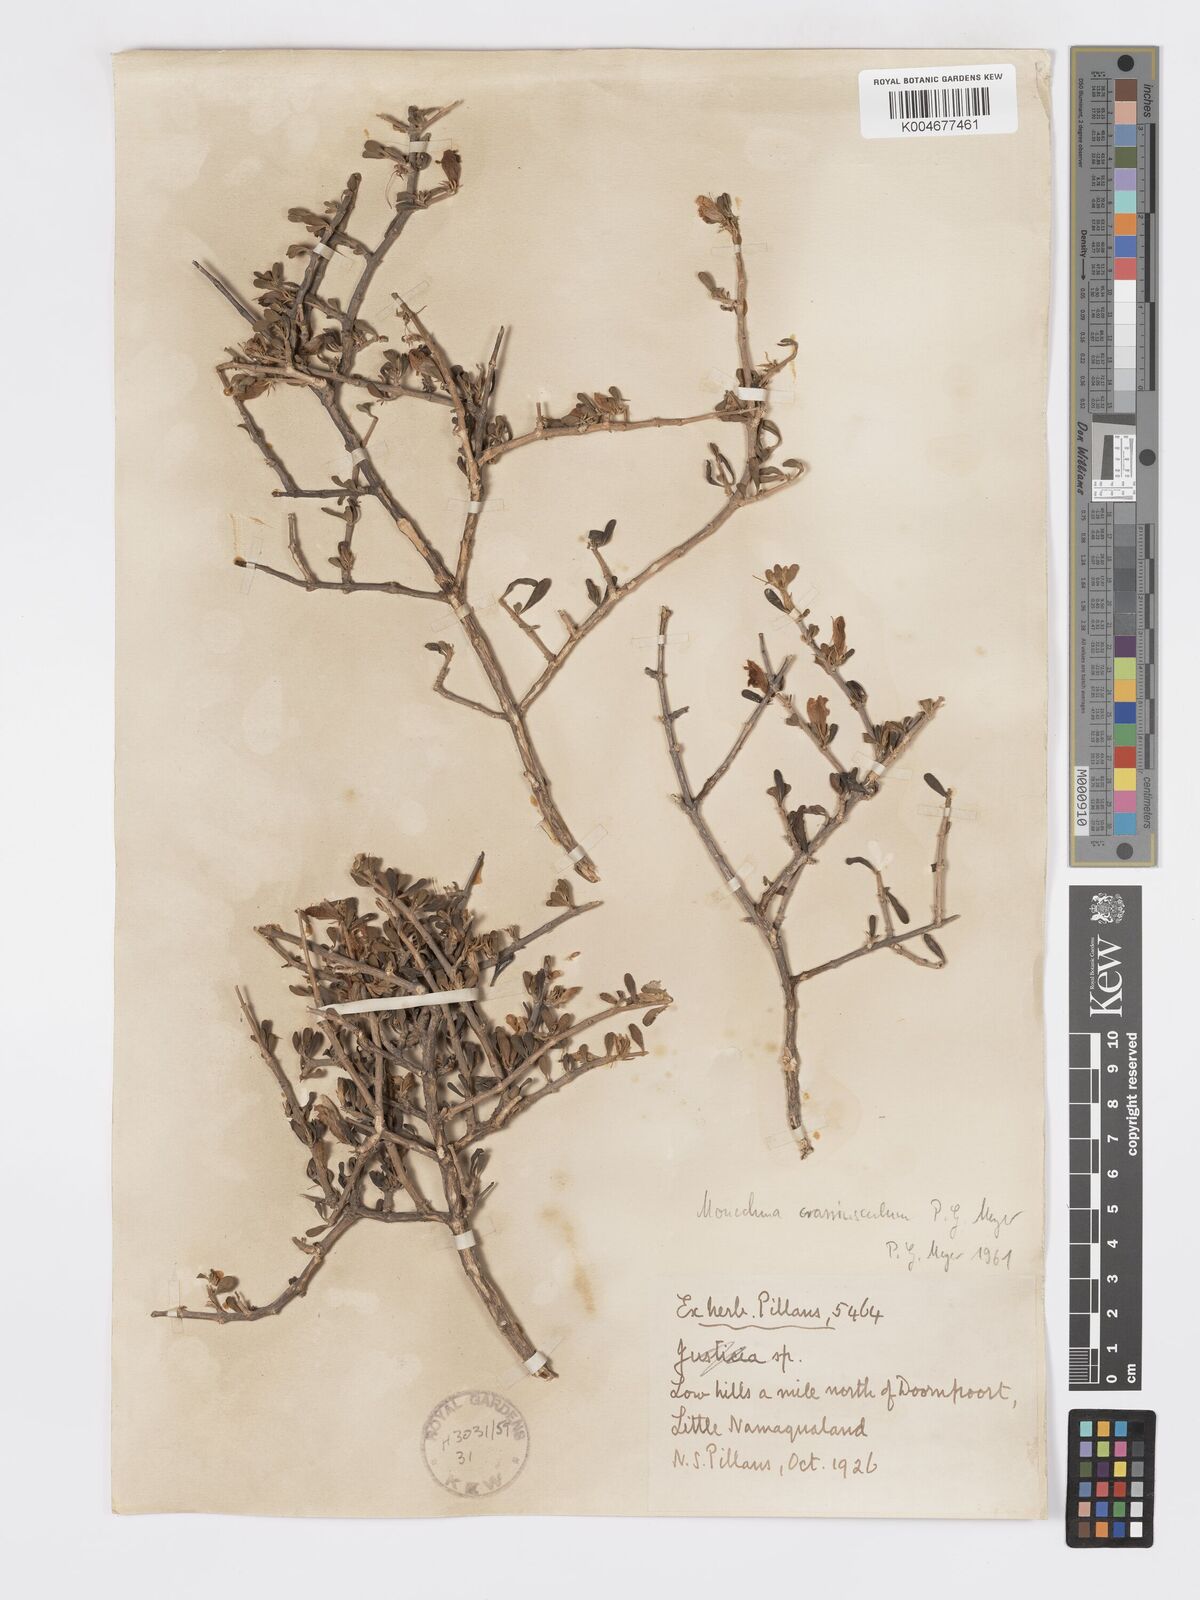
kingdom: Plantae
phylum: Tracheophyta
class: Magnoliopsida
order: Lamiales
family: Acanthaceae
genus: Pogonospermum
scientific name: Pogonospermum
